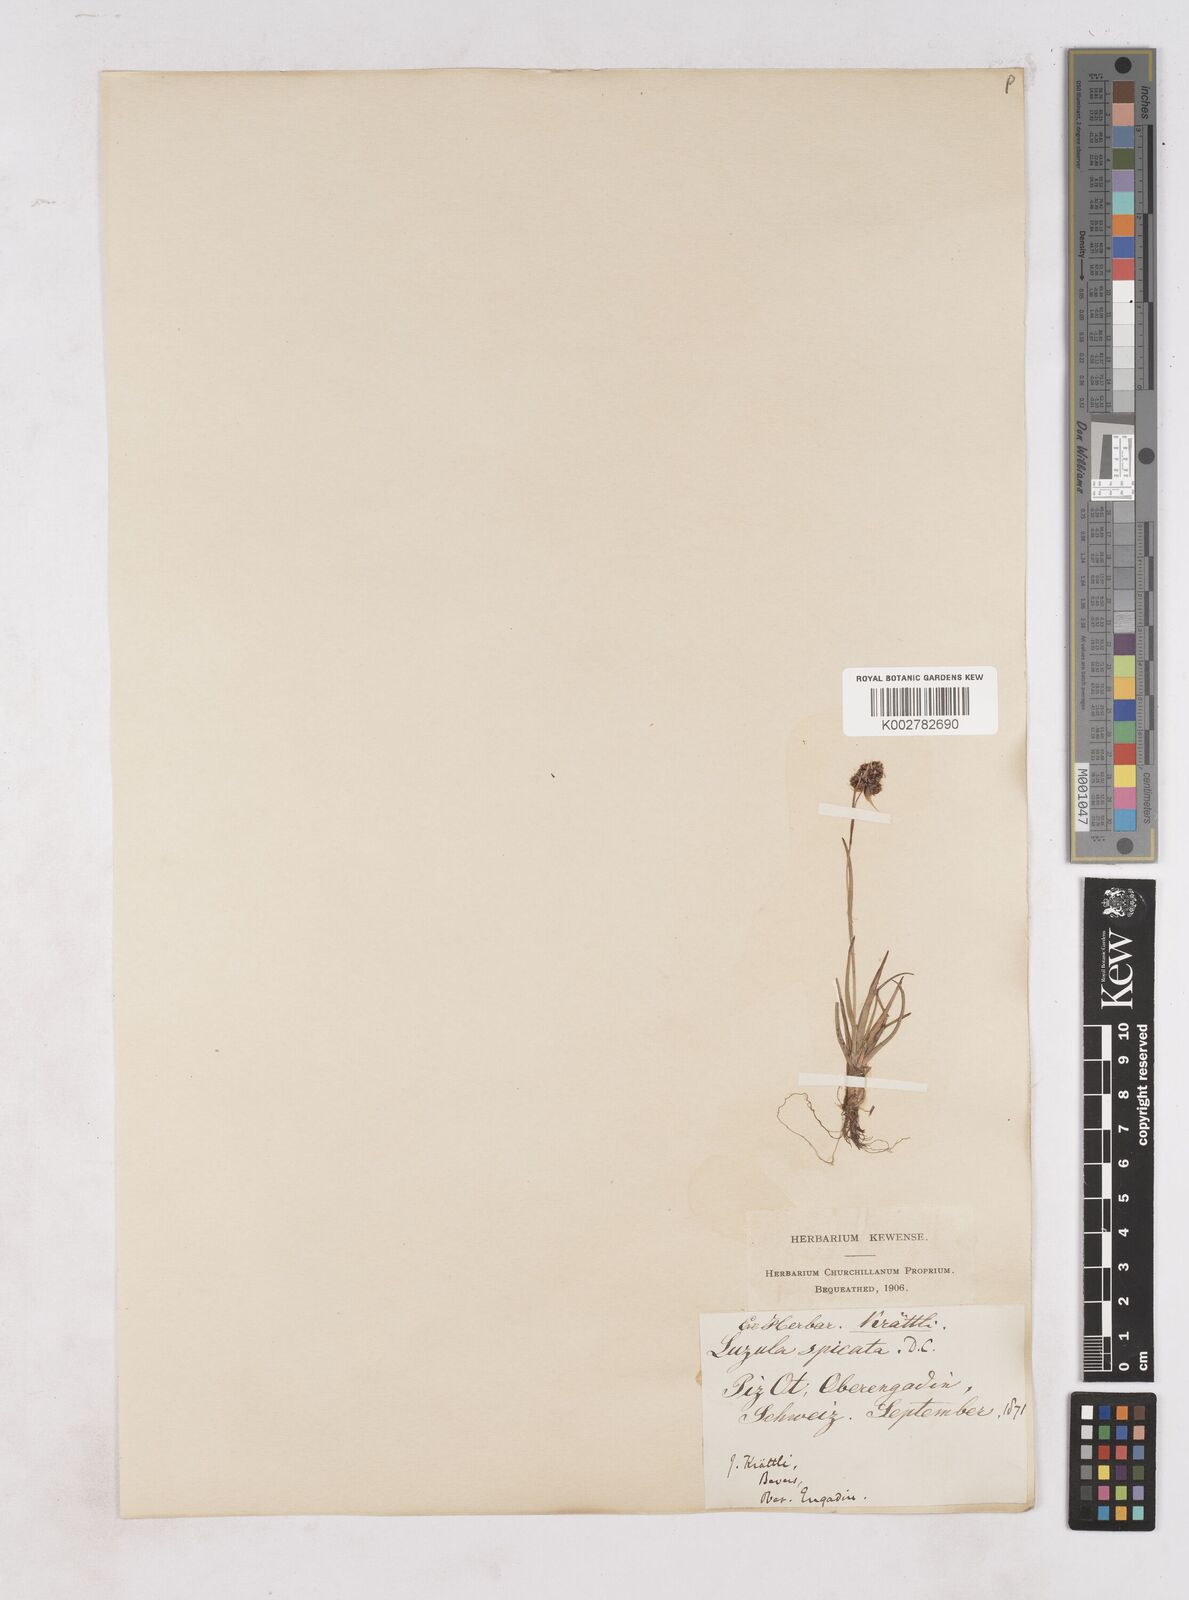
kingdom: Plantae
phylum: Tracheophyta
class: Liliopsida
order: Poales
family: Juncaceae
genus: Luzula
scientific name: Luzula spicata
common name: Spiked wood-rush
